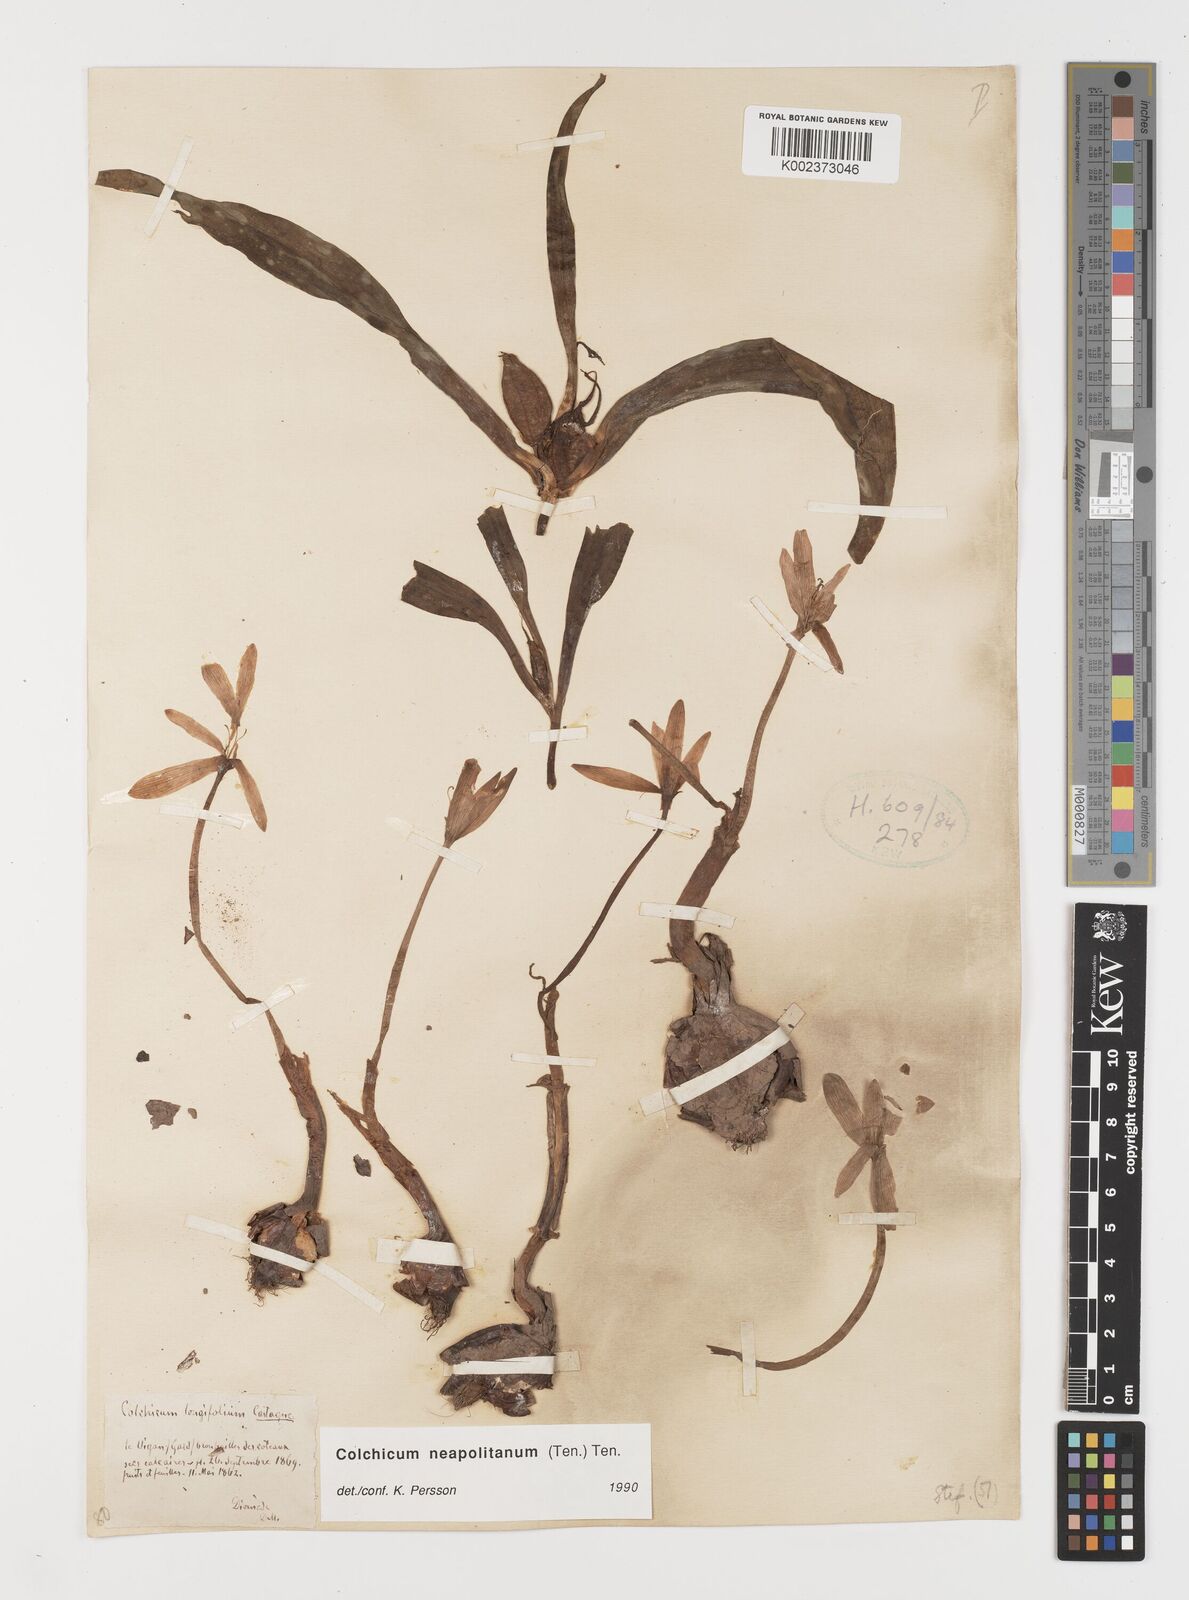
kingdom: Plantae
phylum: Tracheophyta
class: Liliopsida
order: Liliales
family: Colchicaceae
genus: Colchicum
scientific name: Colchicum neapolitanum
